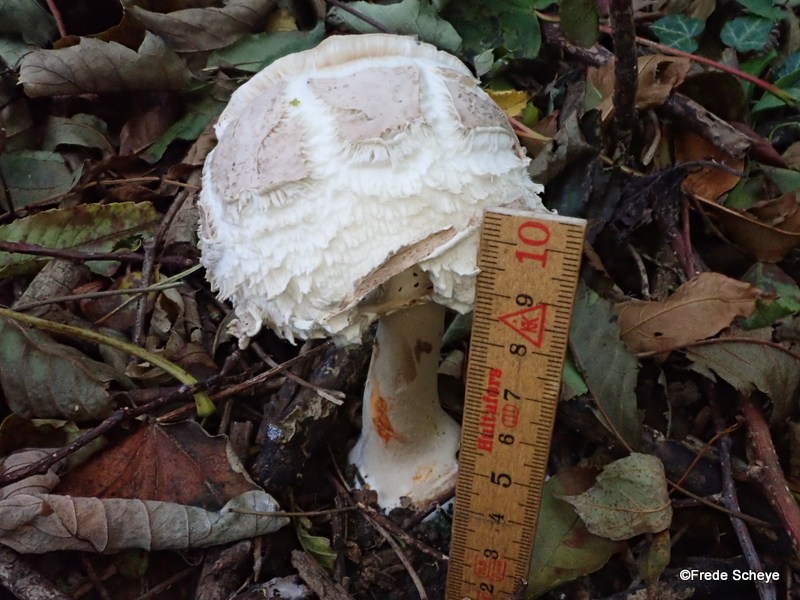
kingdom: Fungi
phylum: Basidiomycota
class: Agaricomycetes
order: Agaricales
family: Agaricaceae
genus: Chlorophyllum
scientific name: Chlorophyllum rhacodes
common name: ægte rabarberhat
